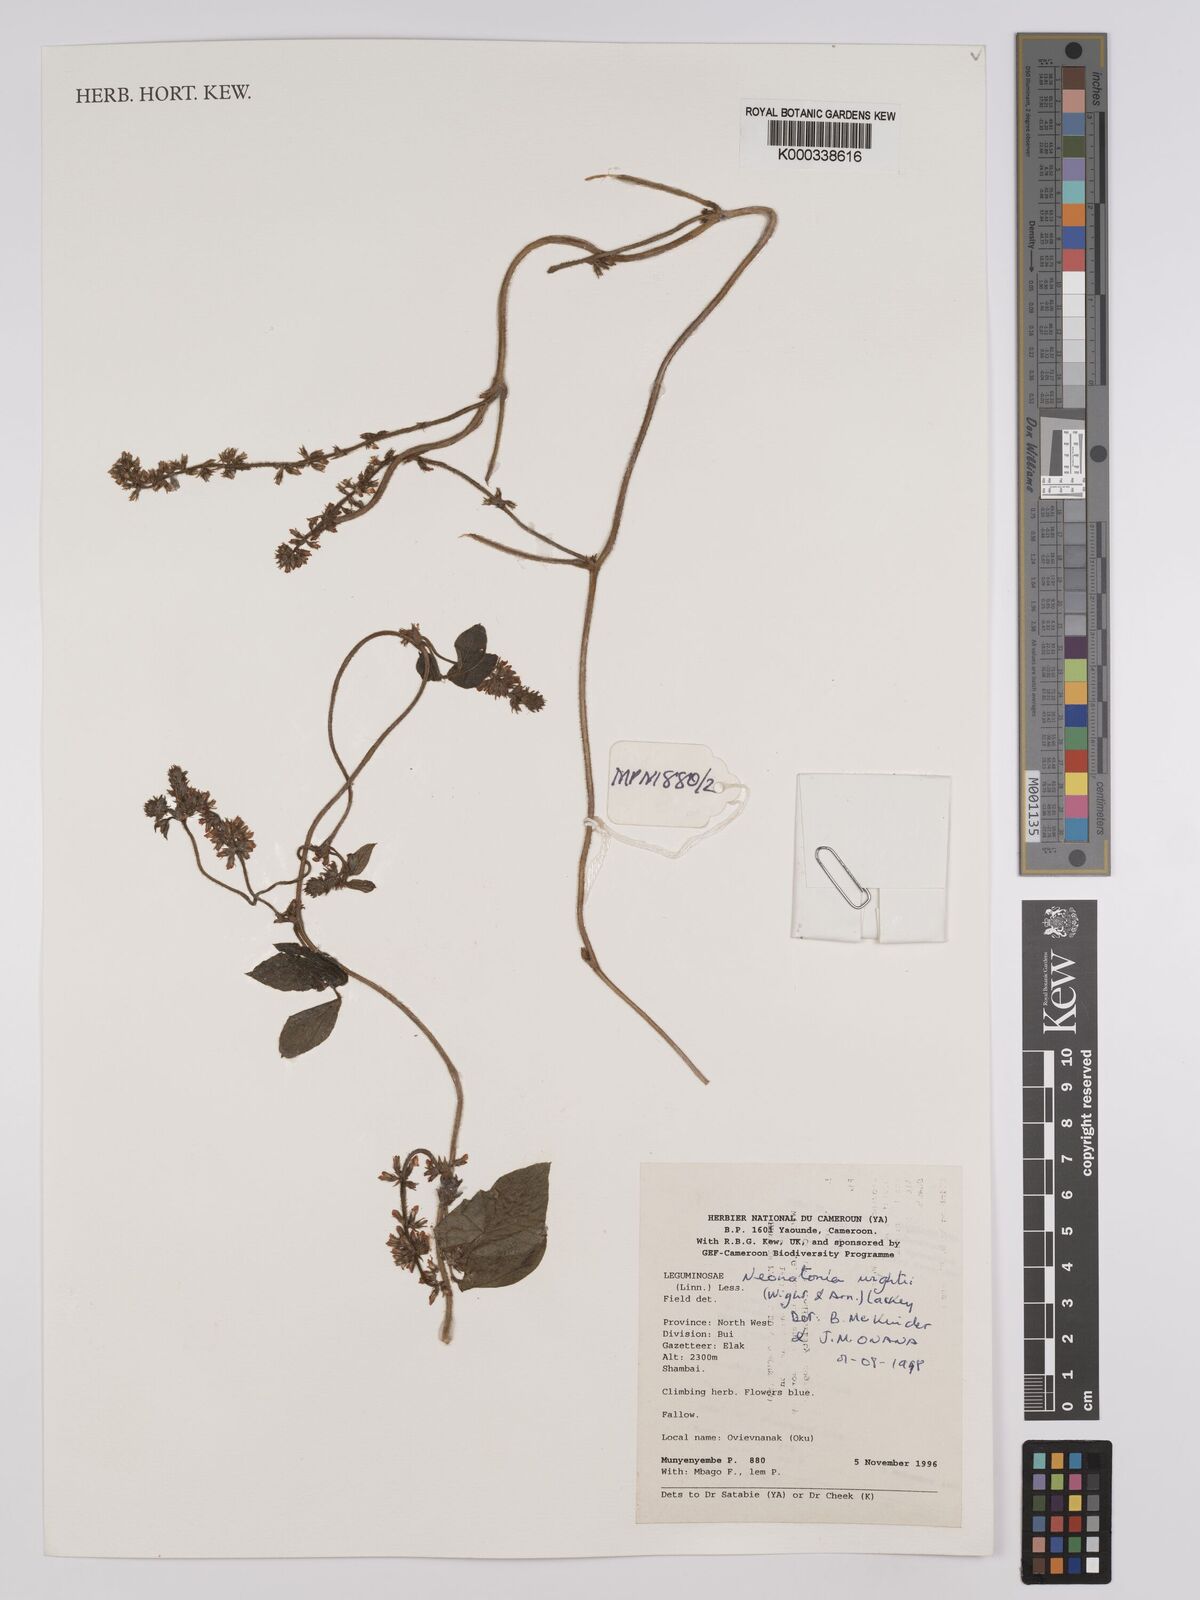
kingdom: Plantae
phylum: Tracheophyta
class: Magnoliopsida
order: Fabales
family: Fabaceae
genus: Neonotonia
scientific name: Neonotonia wightii
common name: Perennial soybean
